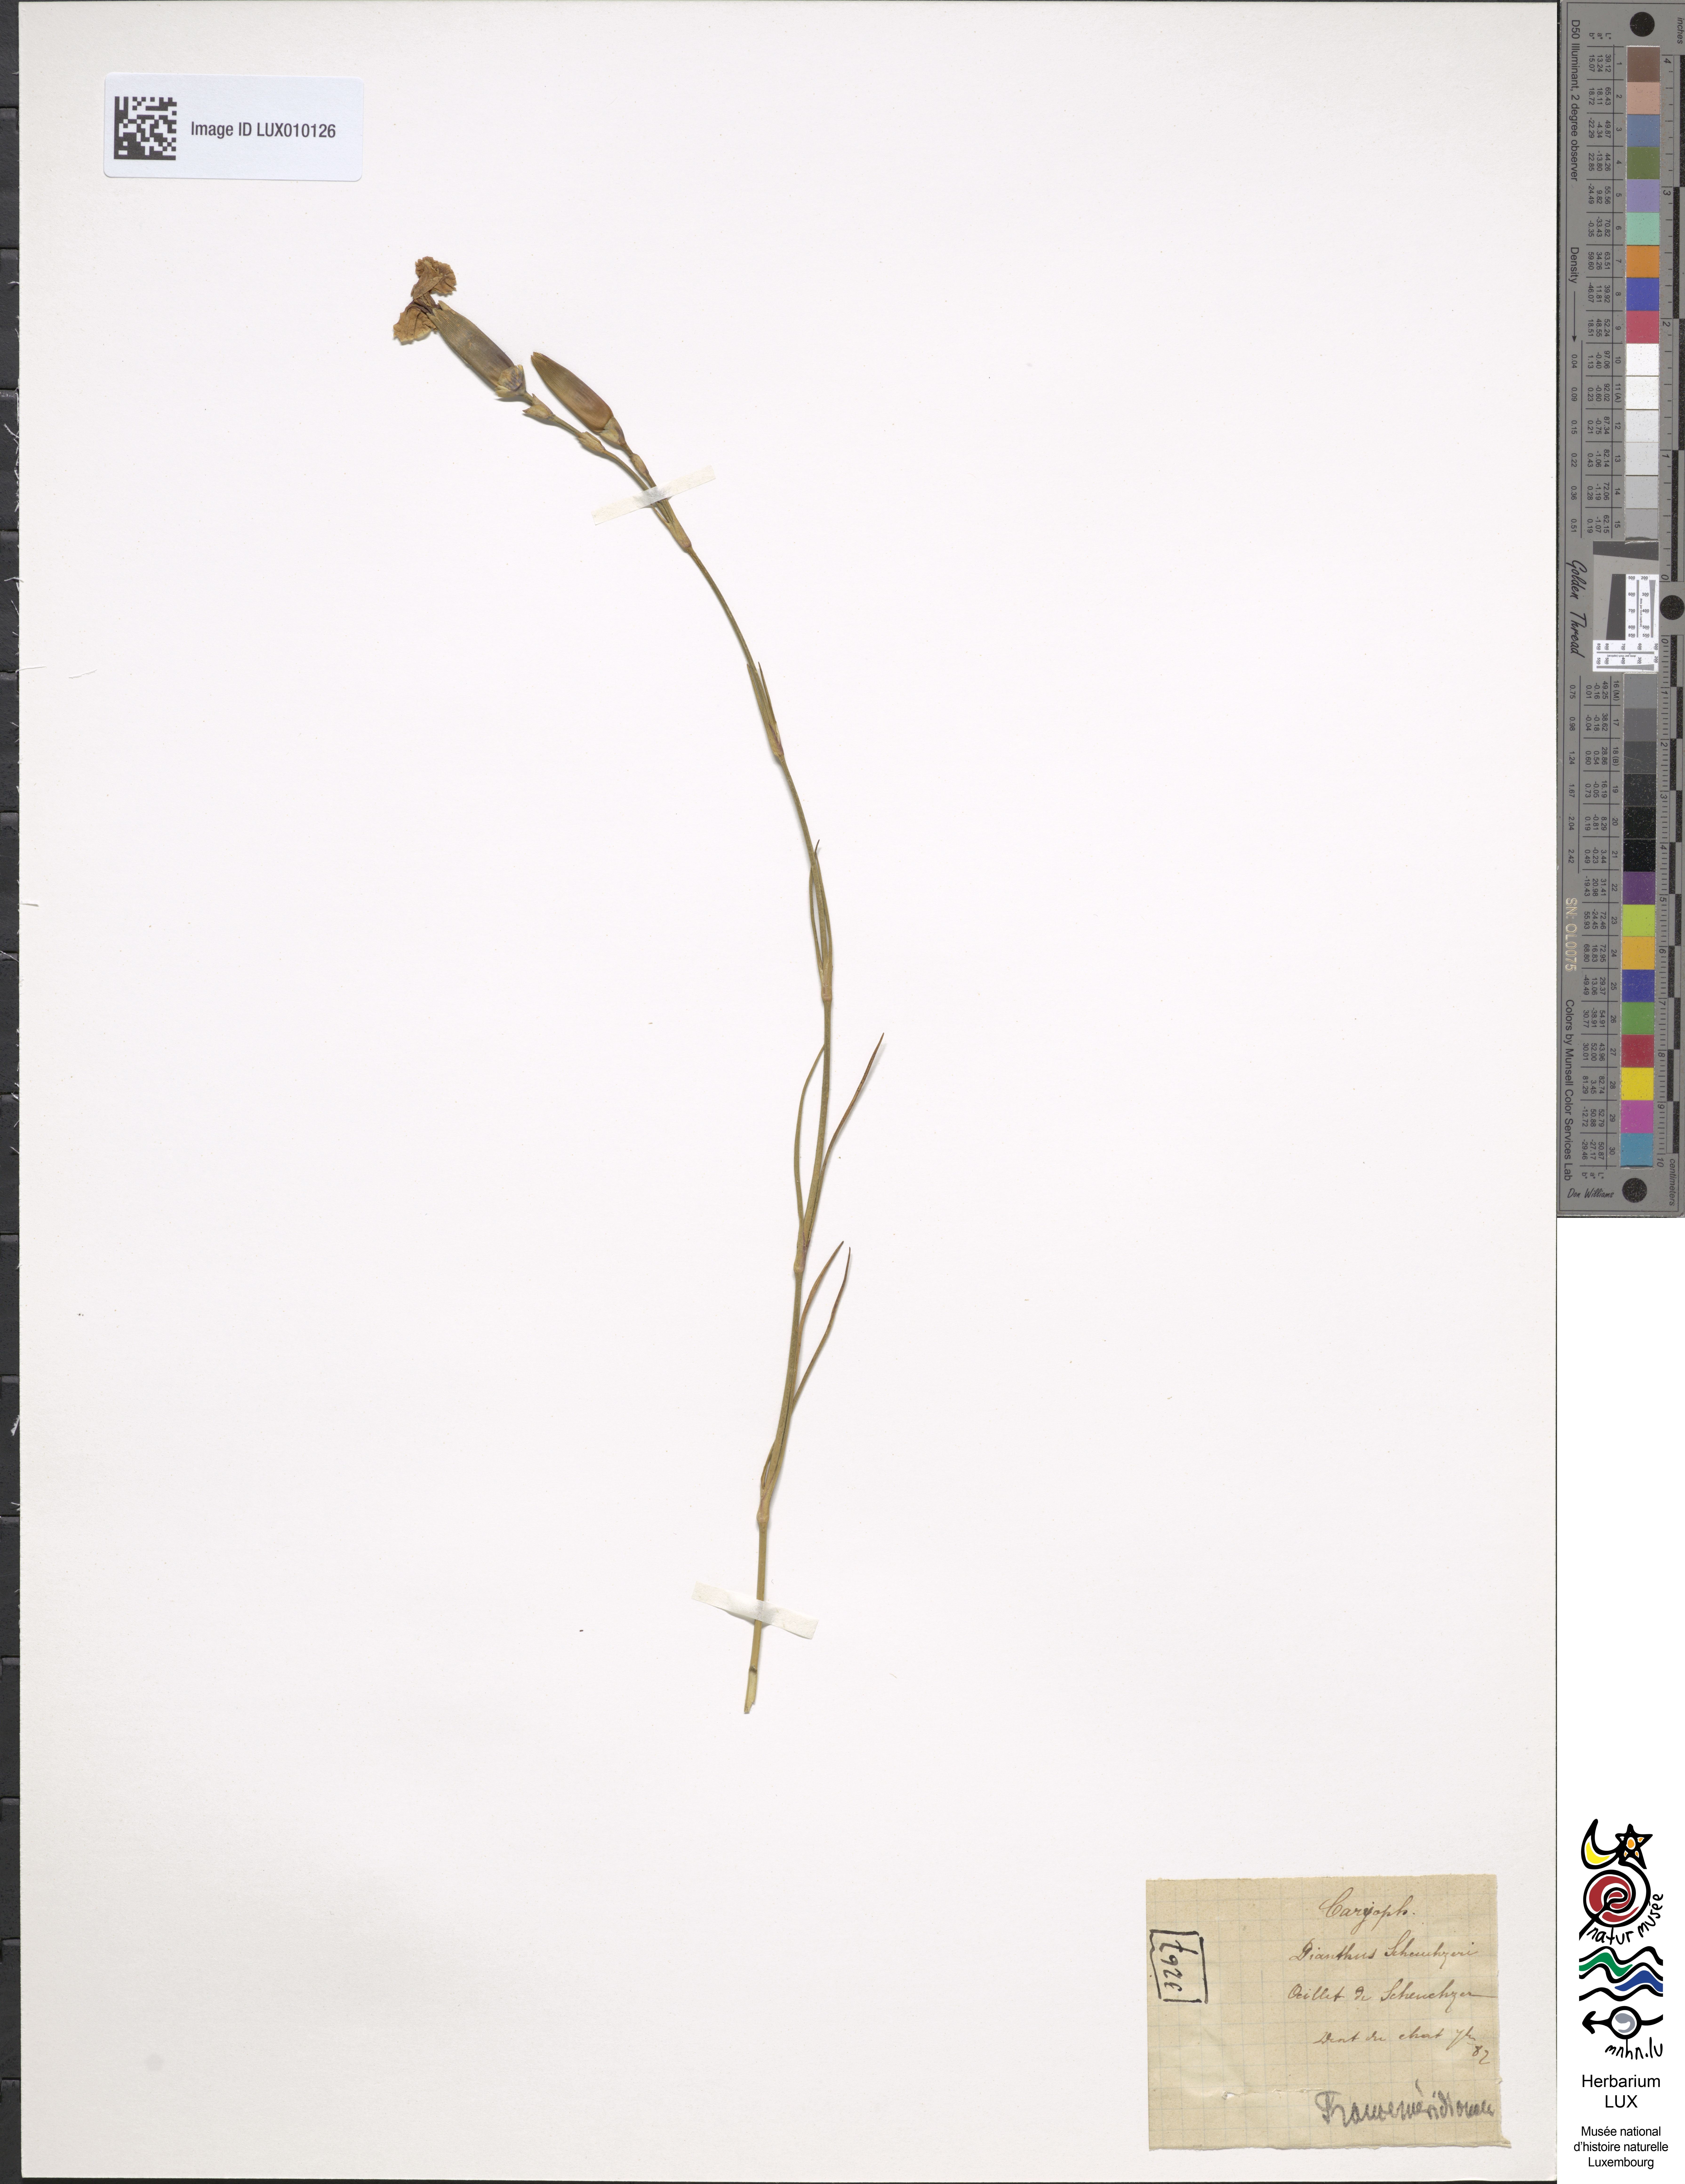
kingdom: Plantae
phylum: Tracheophyta
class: Magnoliopsida
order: Caryophyllales
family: Caryophyllaceae
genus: Dianthus
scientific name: Dianthus sylvestris
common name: Wood pink
